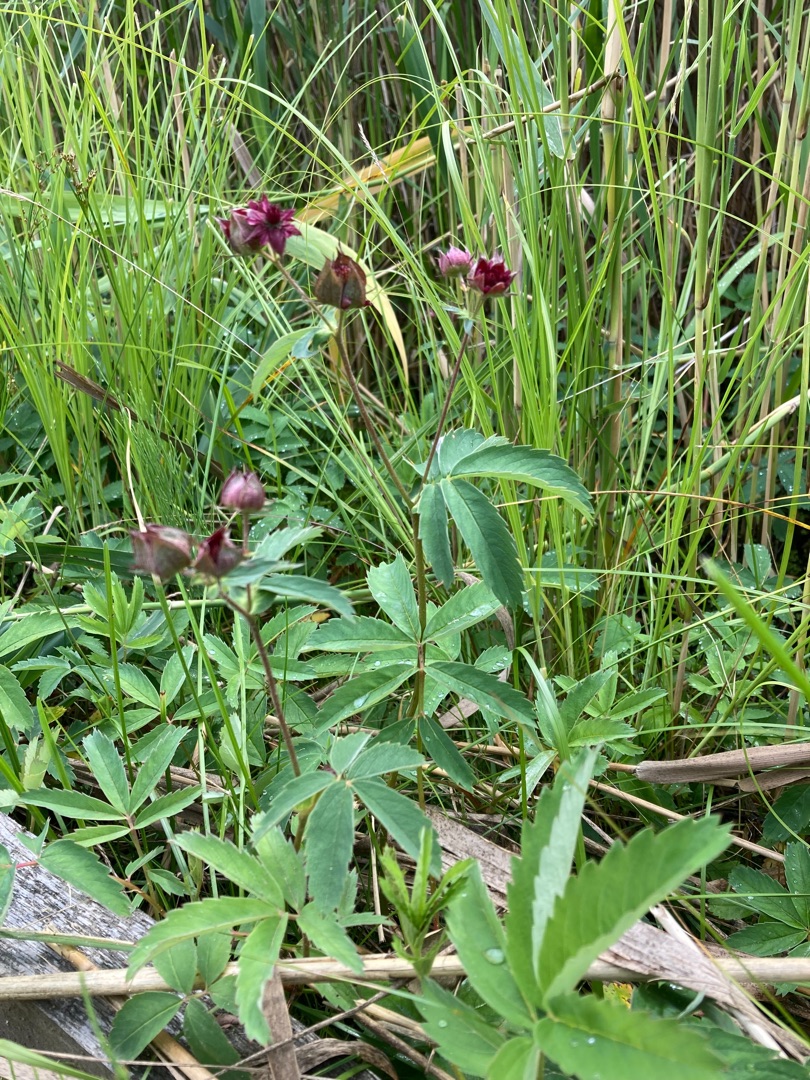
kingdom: Plantae
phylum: Tracheophyta
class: Magnoliopsida
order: Rosales
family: Rosaceae
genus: Comarum
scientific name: Comarum palustre
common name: Kragefod
